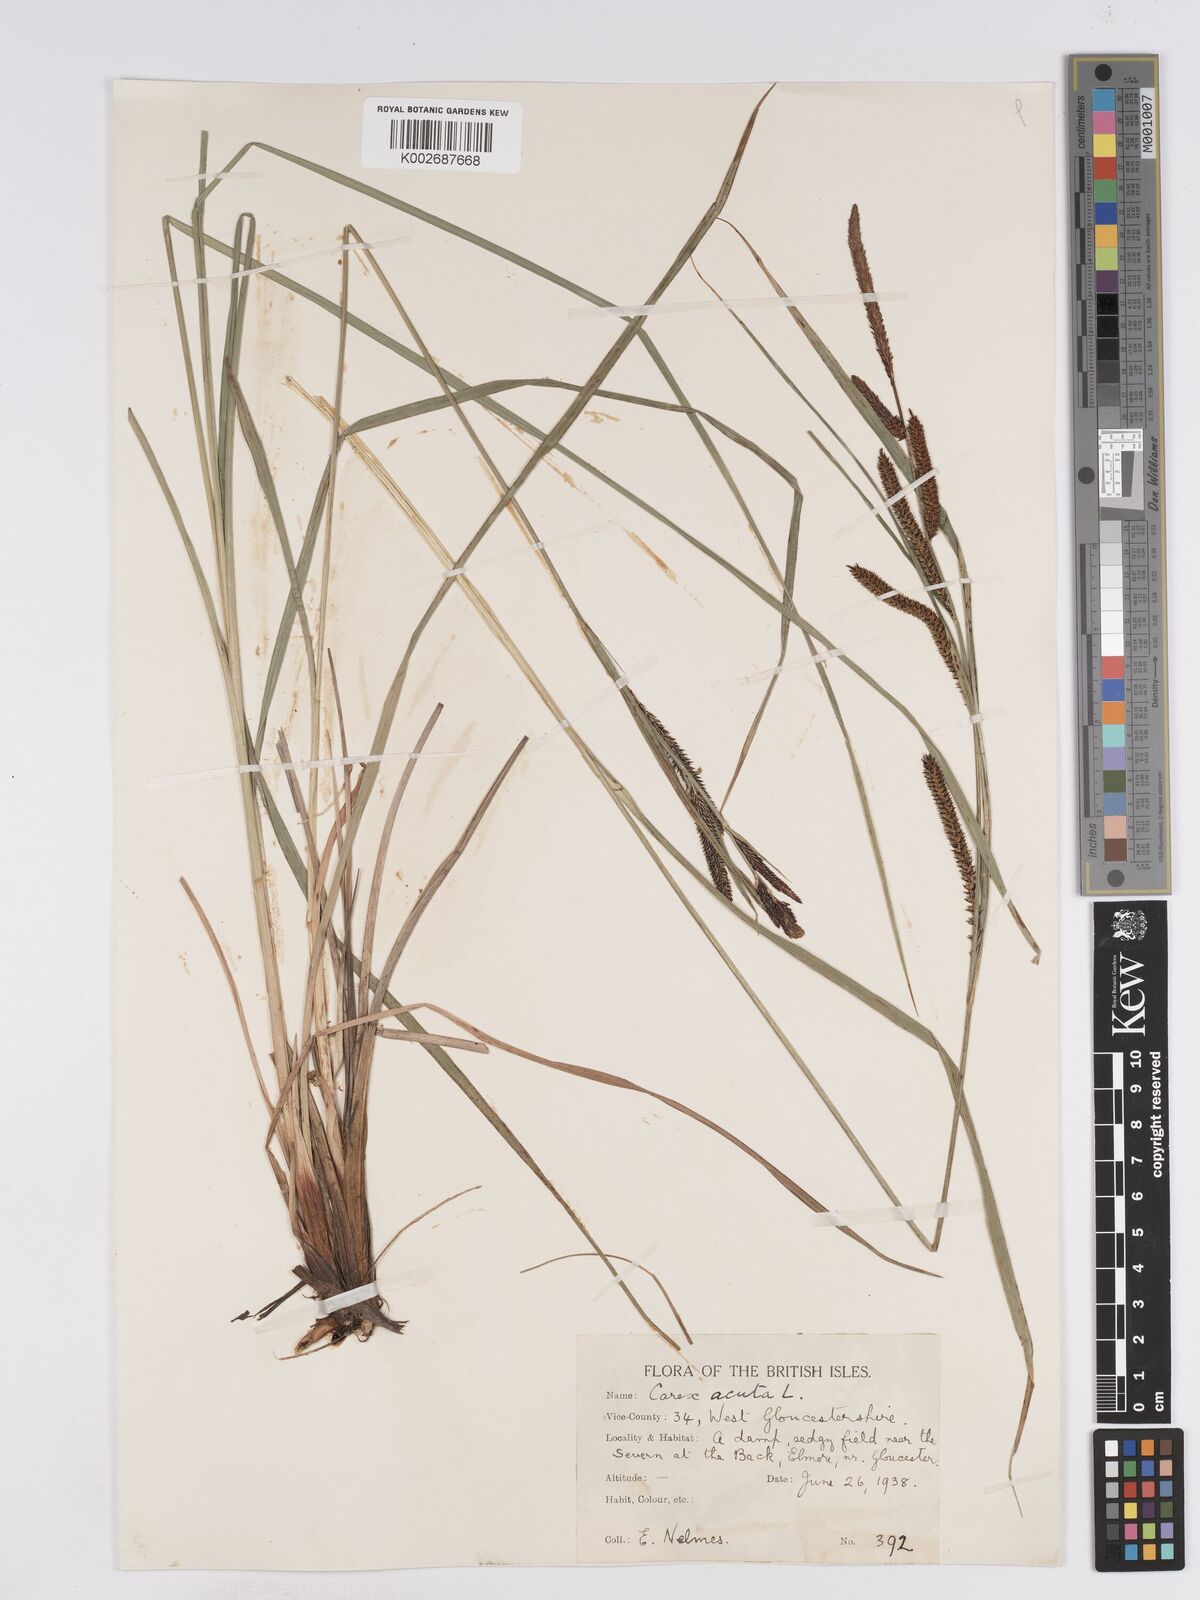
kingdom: Plantae
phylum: Tracheophyta
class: Liliopsida
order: Poales
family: Cyperaceae
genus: Carex
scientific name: Carex acuta
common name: Slender tufted-sedge
